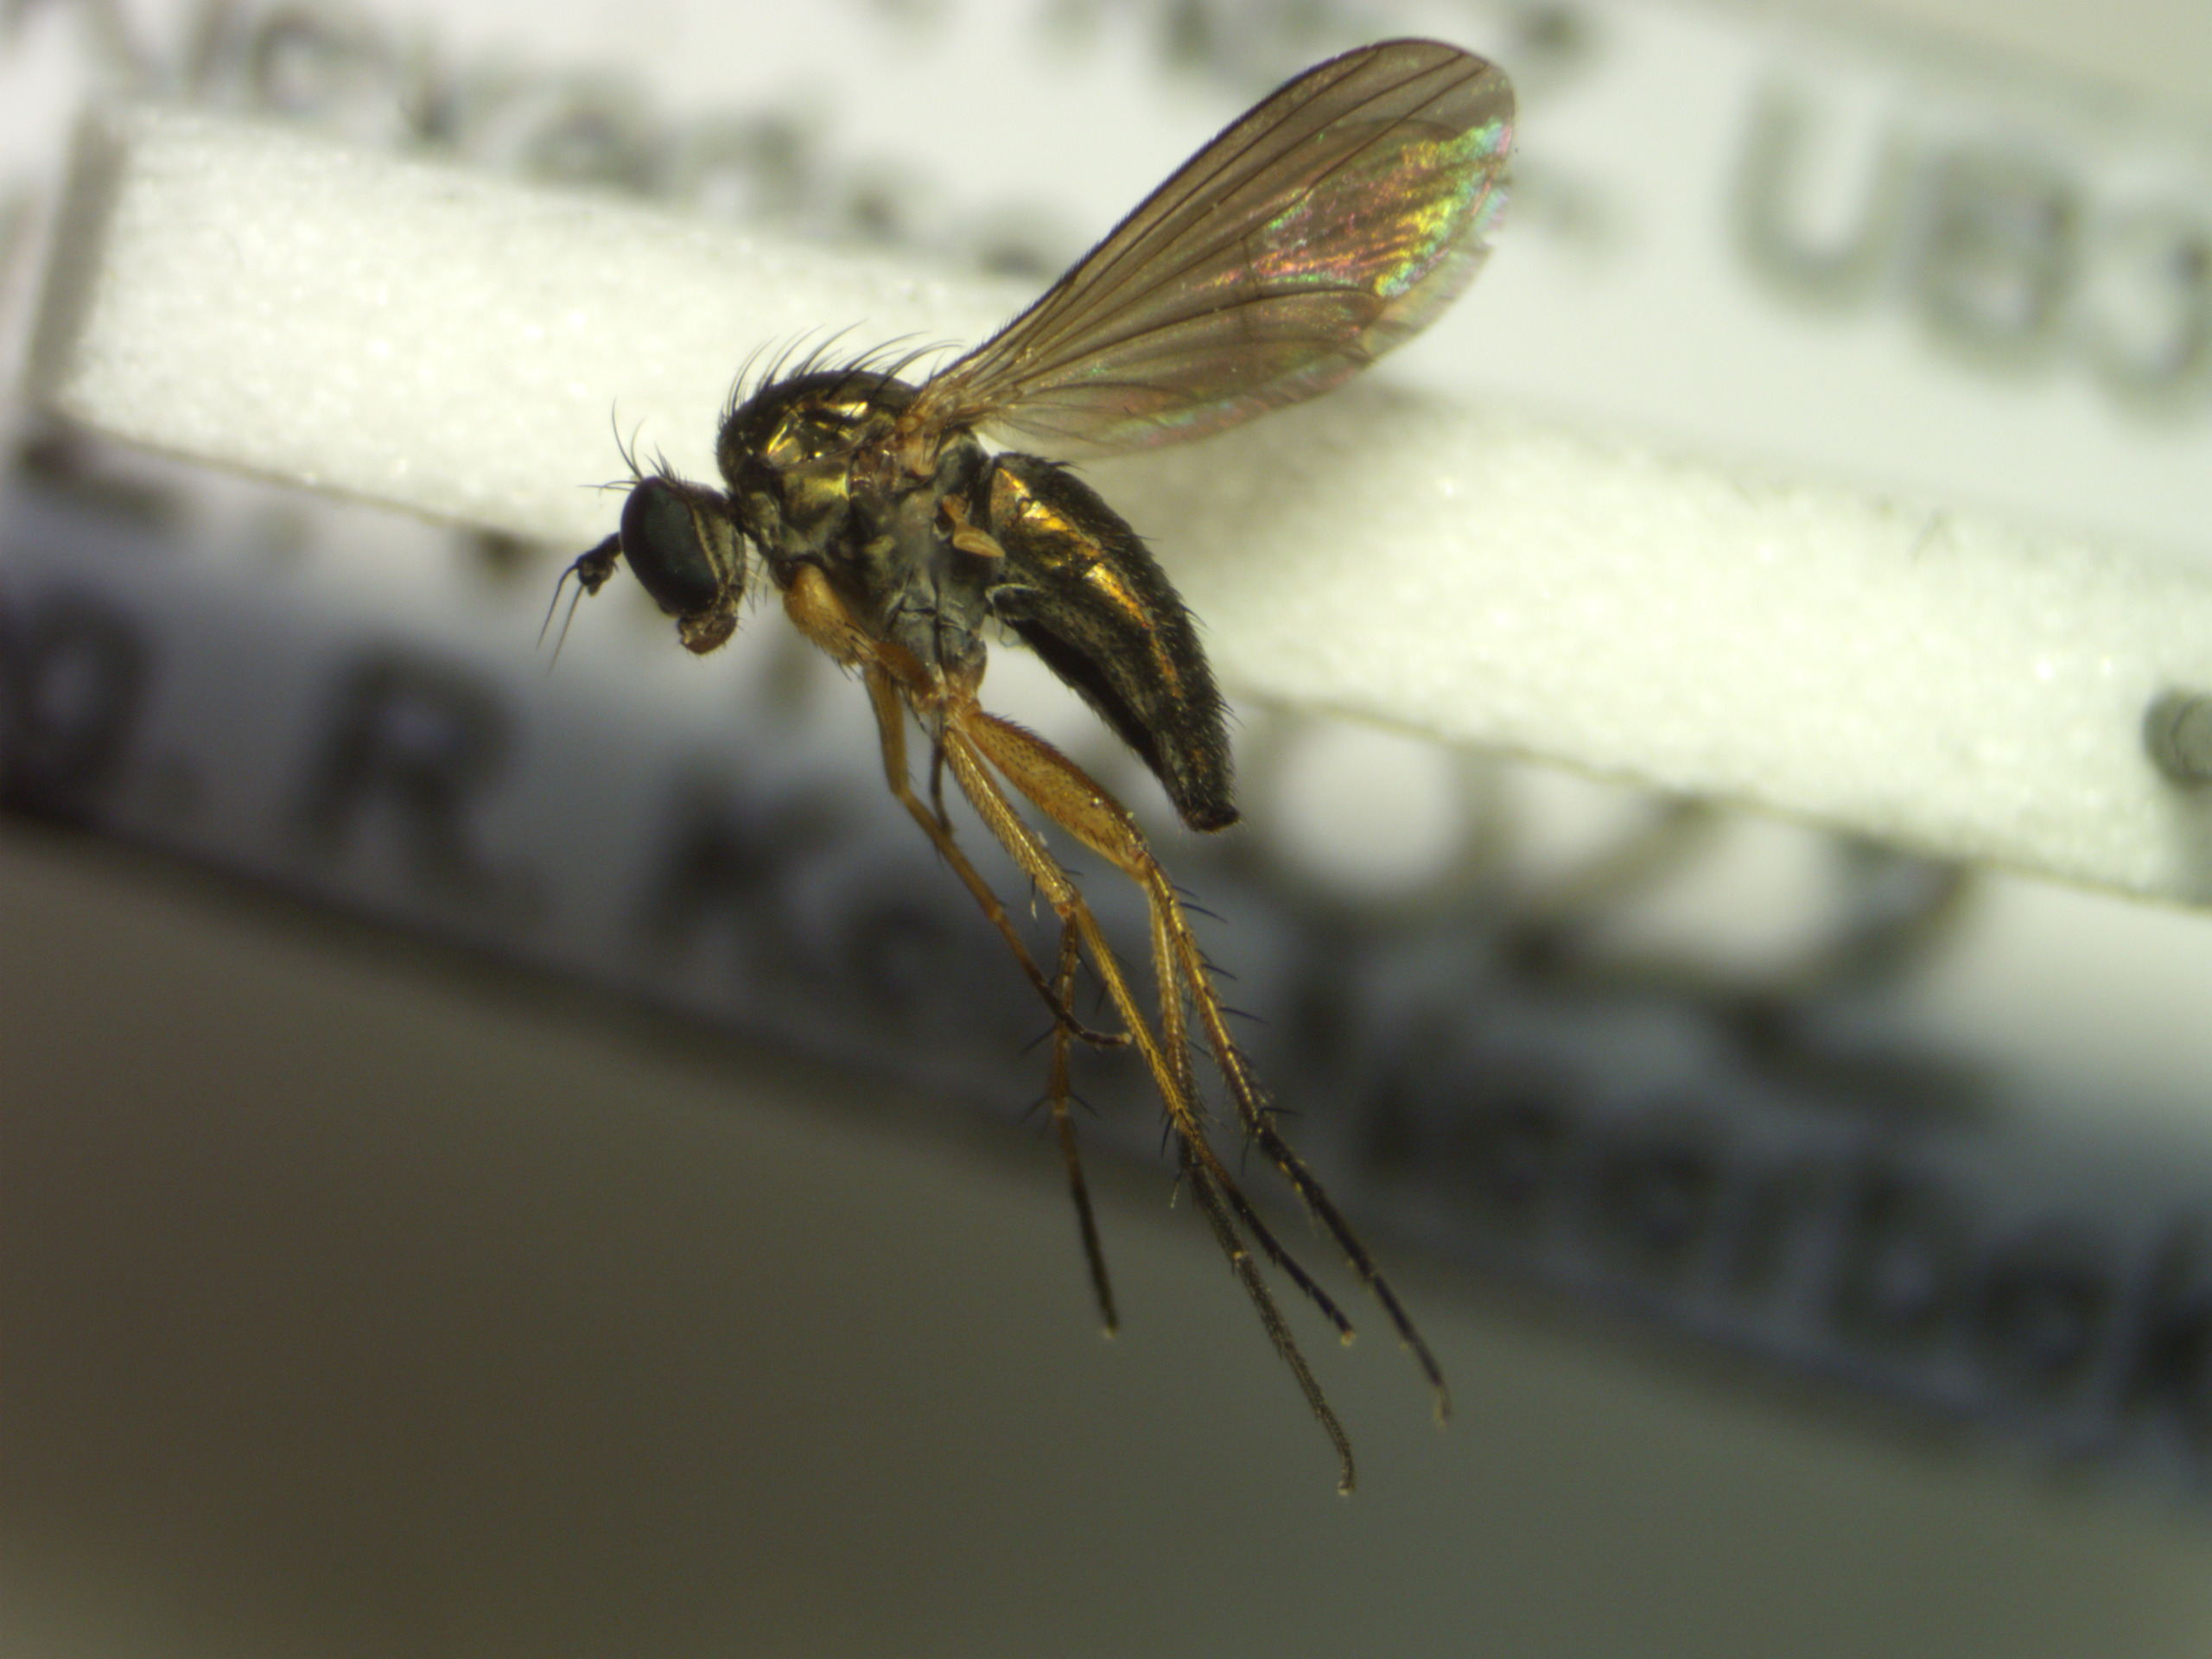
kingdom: Animalia
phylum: Arthropoda
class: Insecta
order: Diptera
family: Dolichopodidae
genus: Hercostomus
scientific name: Hercostomus nanus
